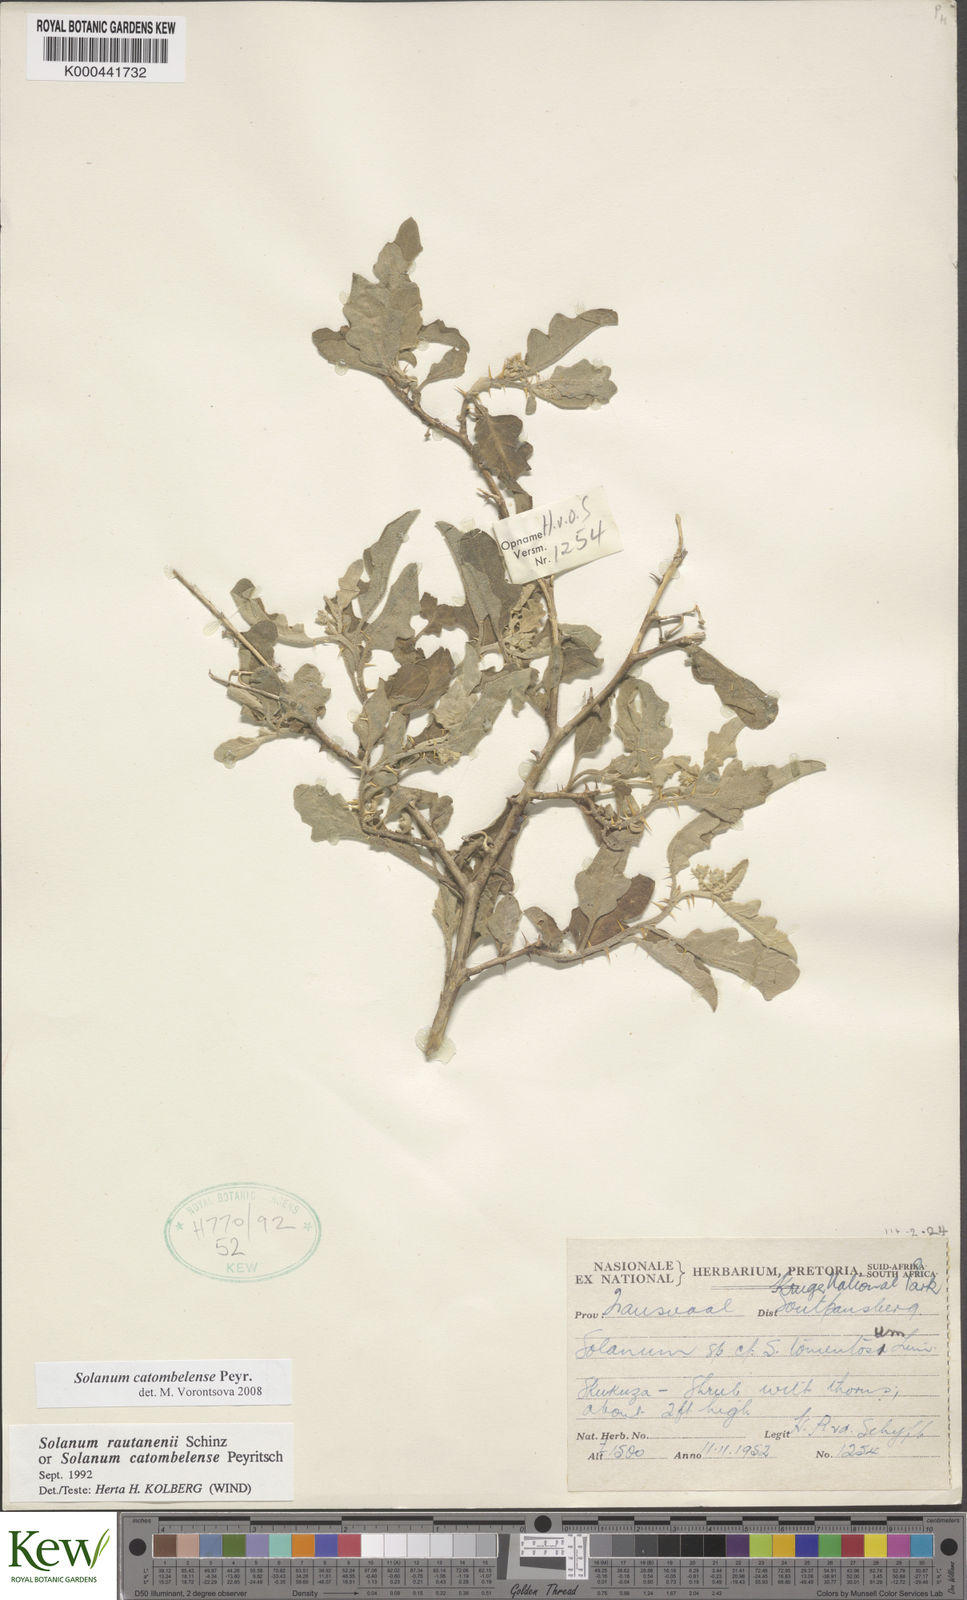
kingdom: Plantae
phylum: Tracheophyta
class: Magnoliopsida
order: Solanales
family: Solanaceae
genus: Solanum
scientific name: Solanum catombelense
